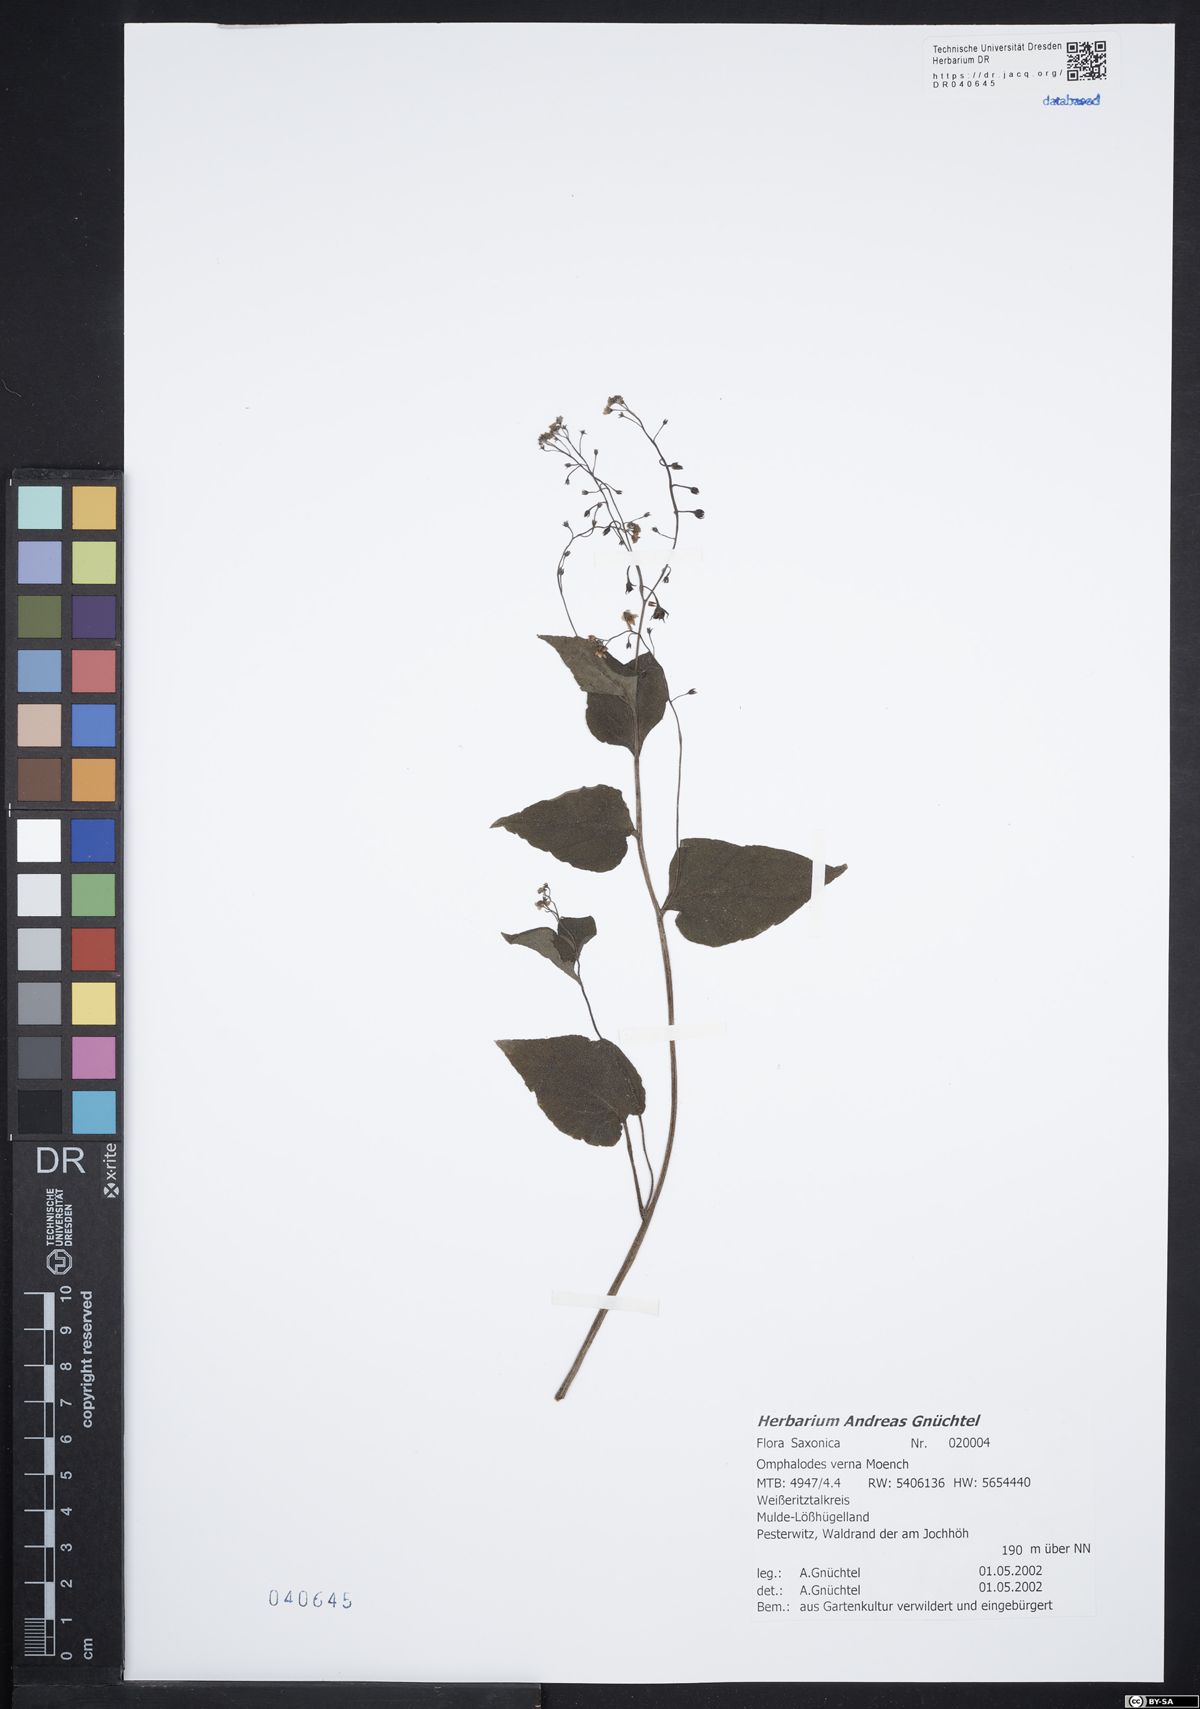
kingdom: Plantae
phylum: Tracheophyta
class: Magnoliopsida
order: Boraginales
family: Boraginaceae
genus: Omphalodes
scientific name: Omphalodes verna
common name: Blue-eyed-mary
